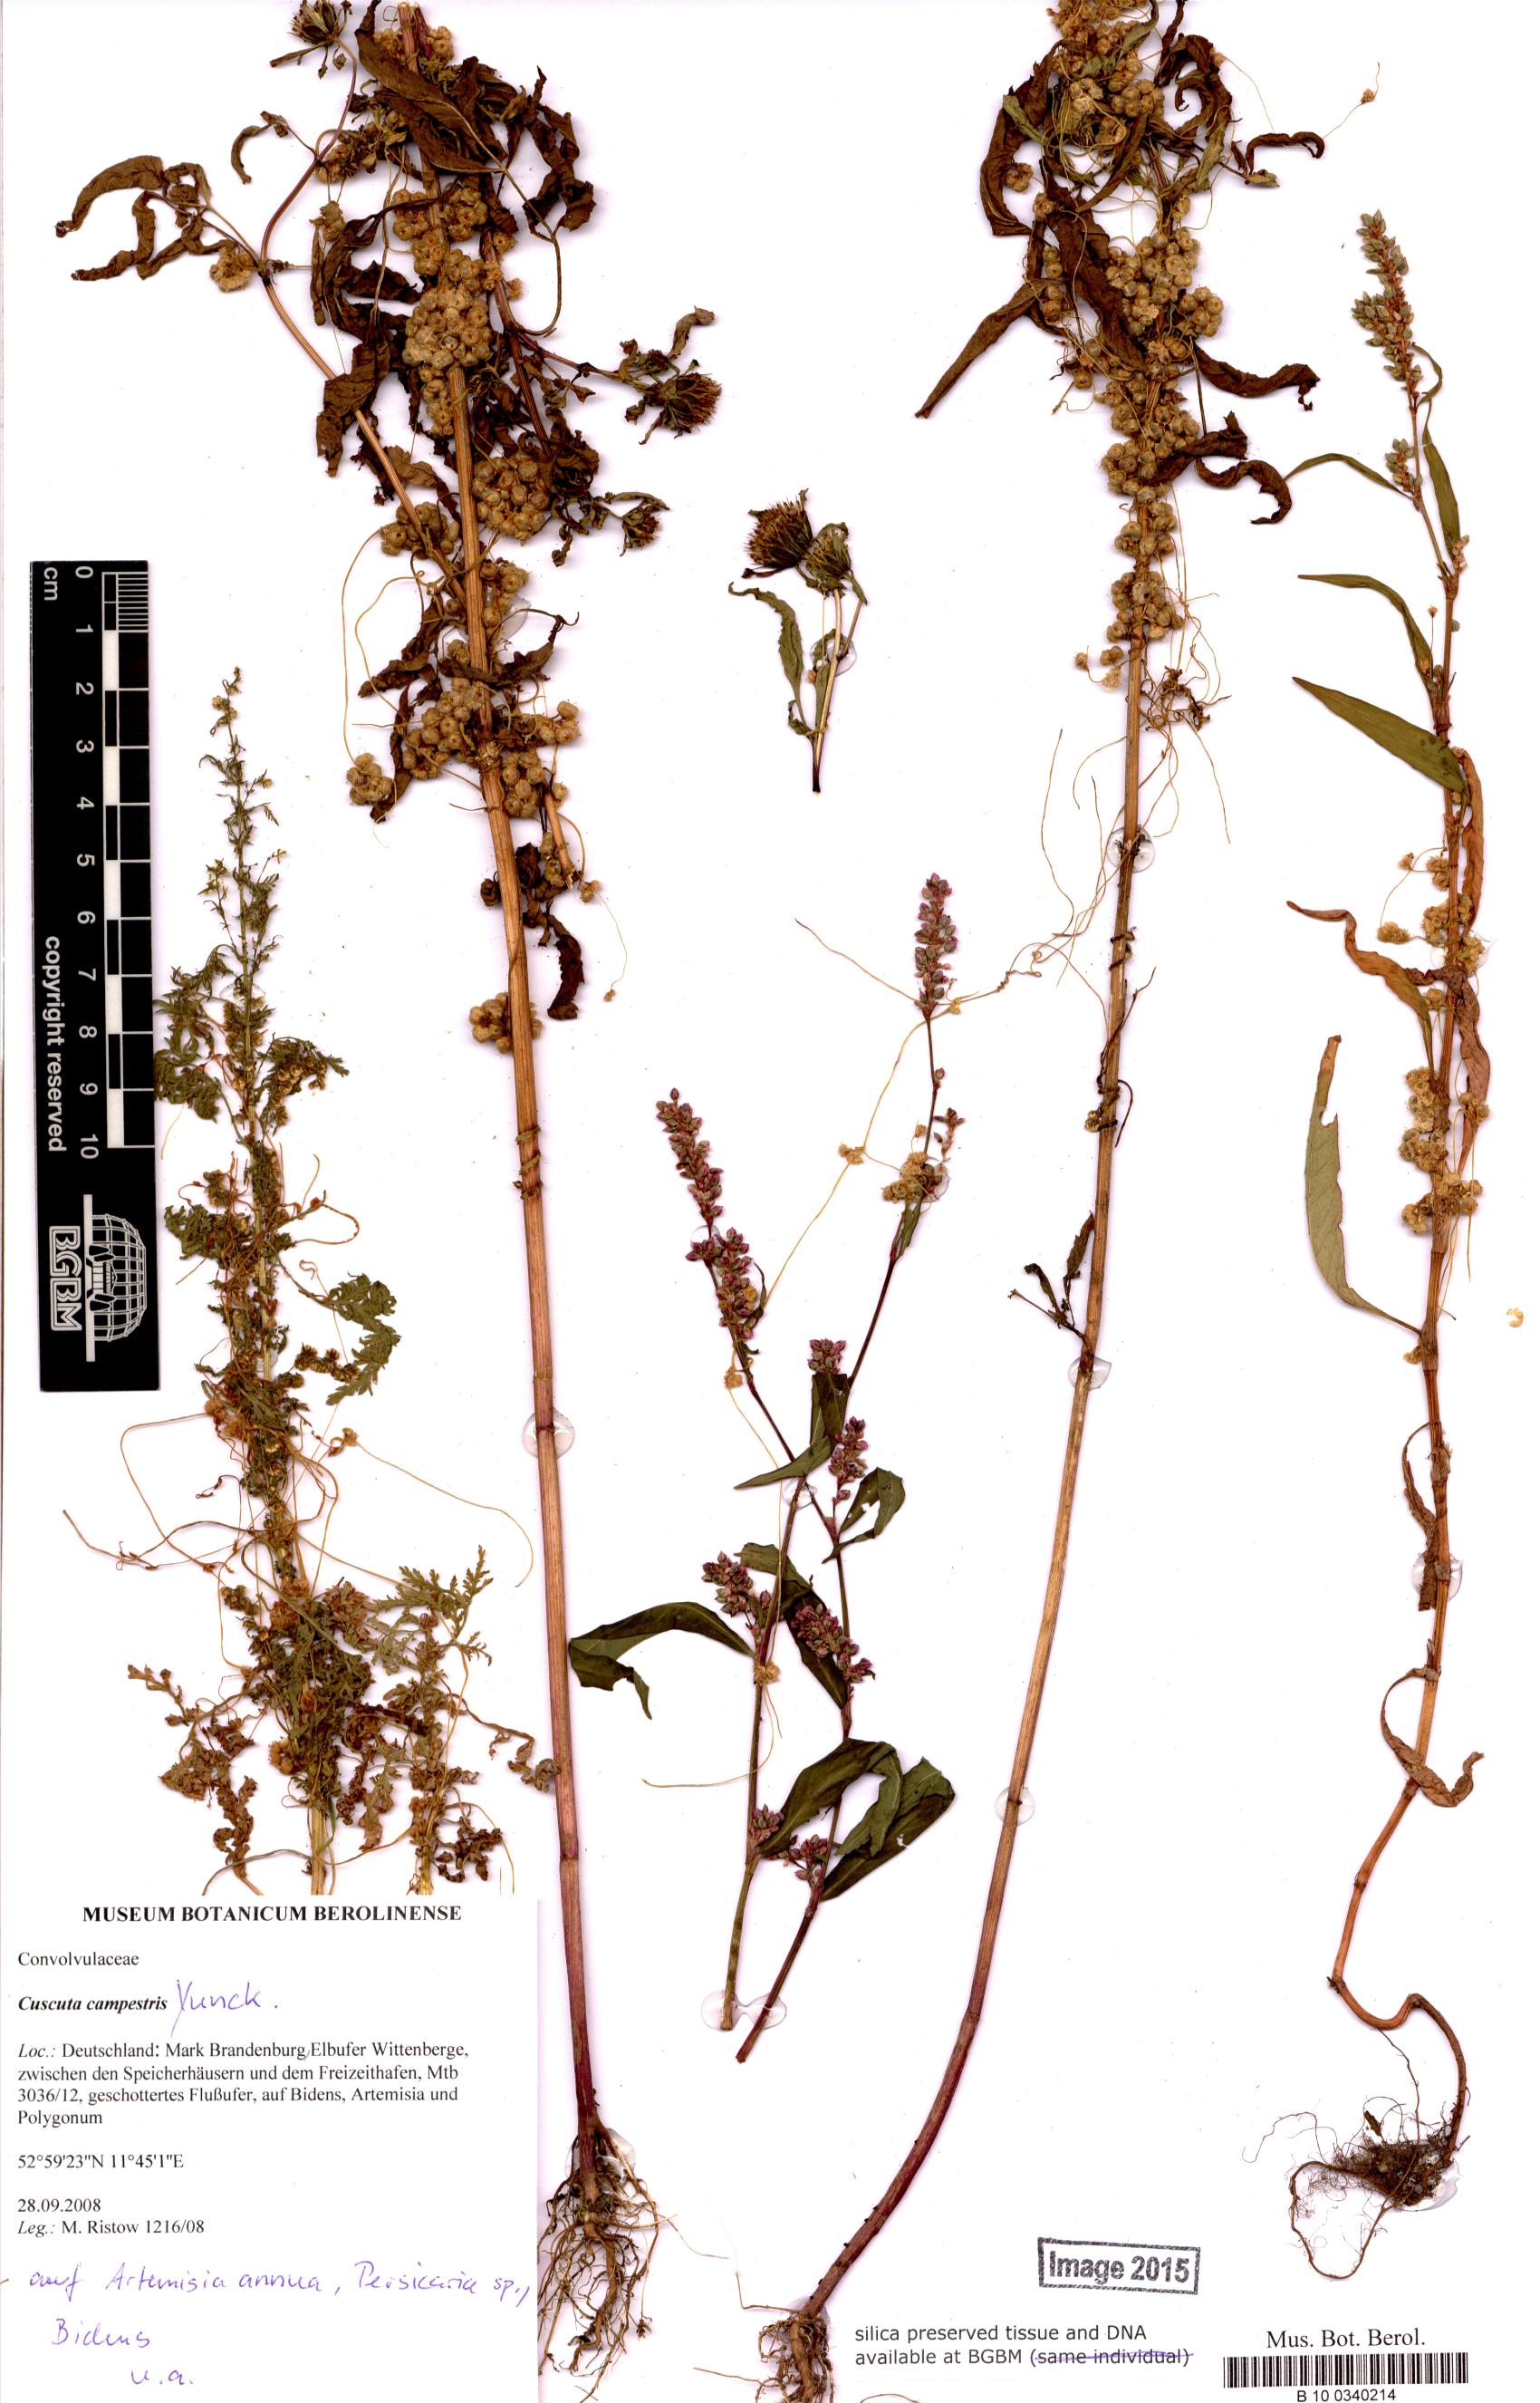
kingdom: Plantae
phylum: Tracheophyta
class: Magnoliopsida
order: Solanales
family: Convolvulaceae
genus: Cuscuta
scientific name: Cuscuta campestris
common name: Yellow dodder
